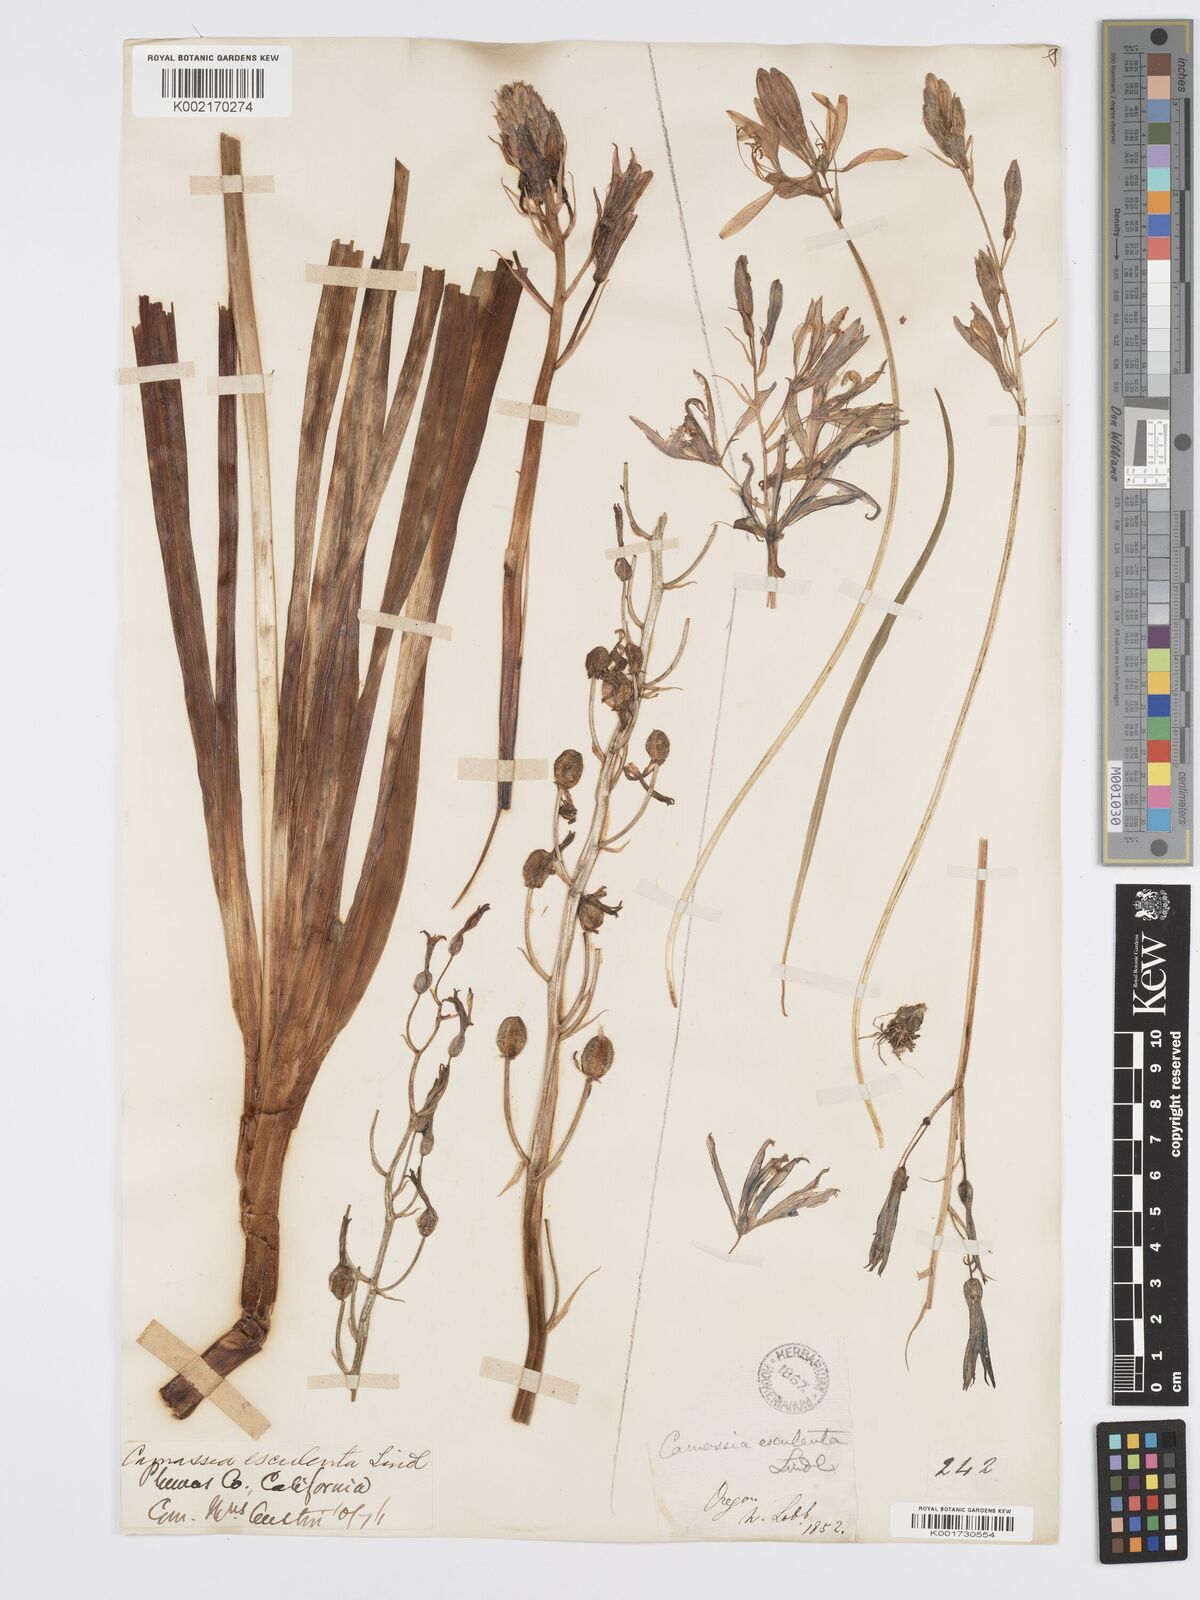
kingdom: Plantae
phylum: Tracheophyta
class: Liliopsida
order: Asparagales
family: Asparagaceae
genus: Camassia
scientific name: Camassia leichtlinii
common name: Leichtlin's camas
